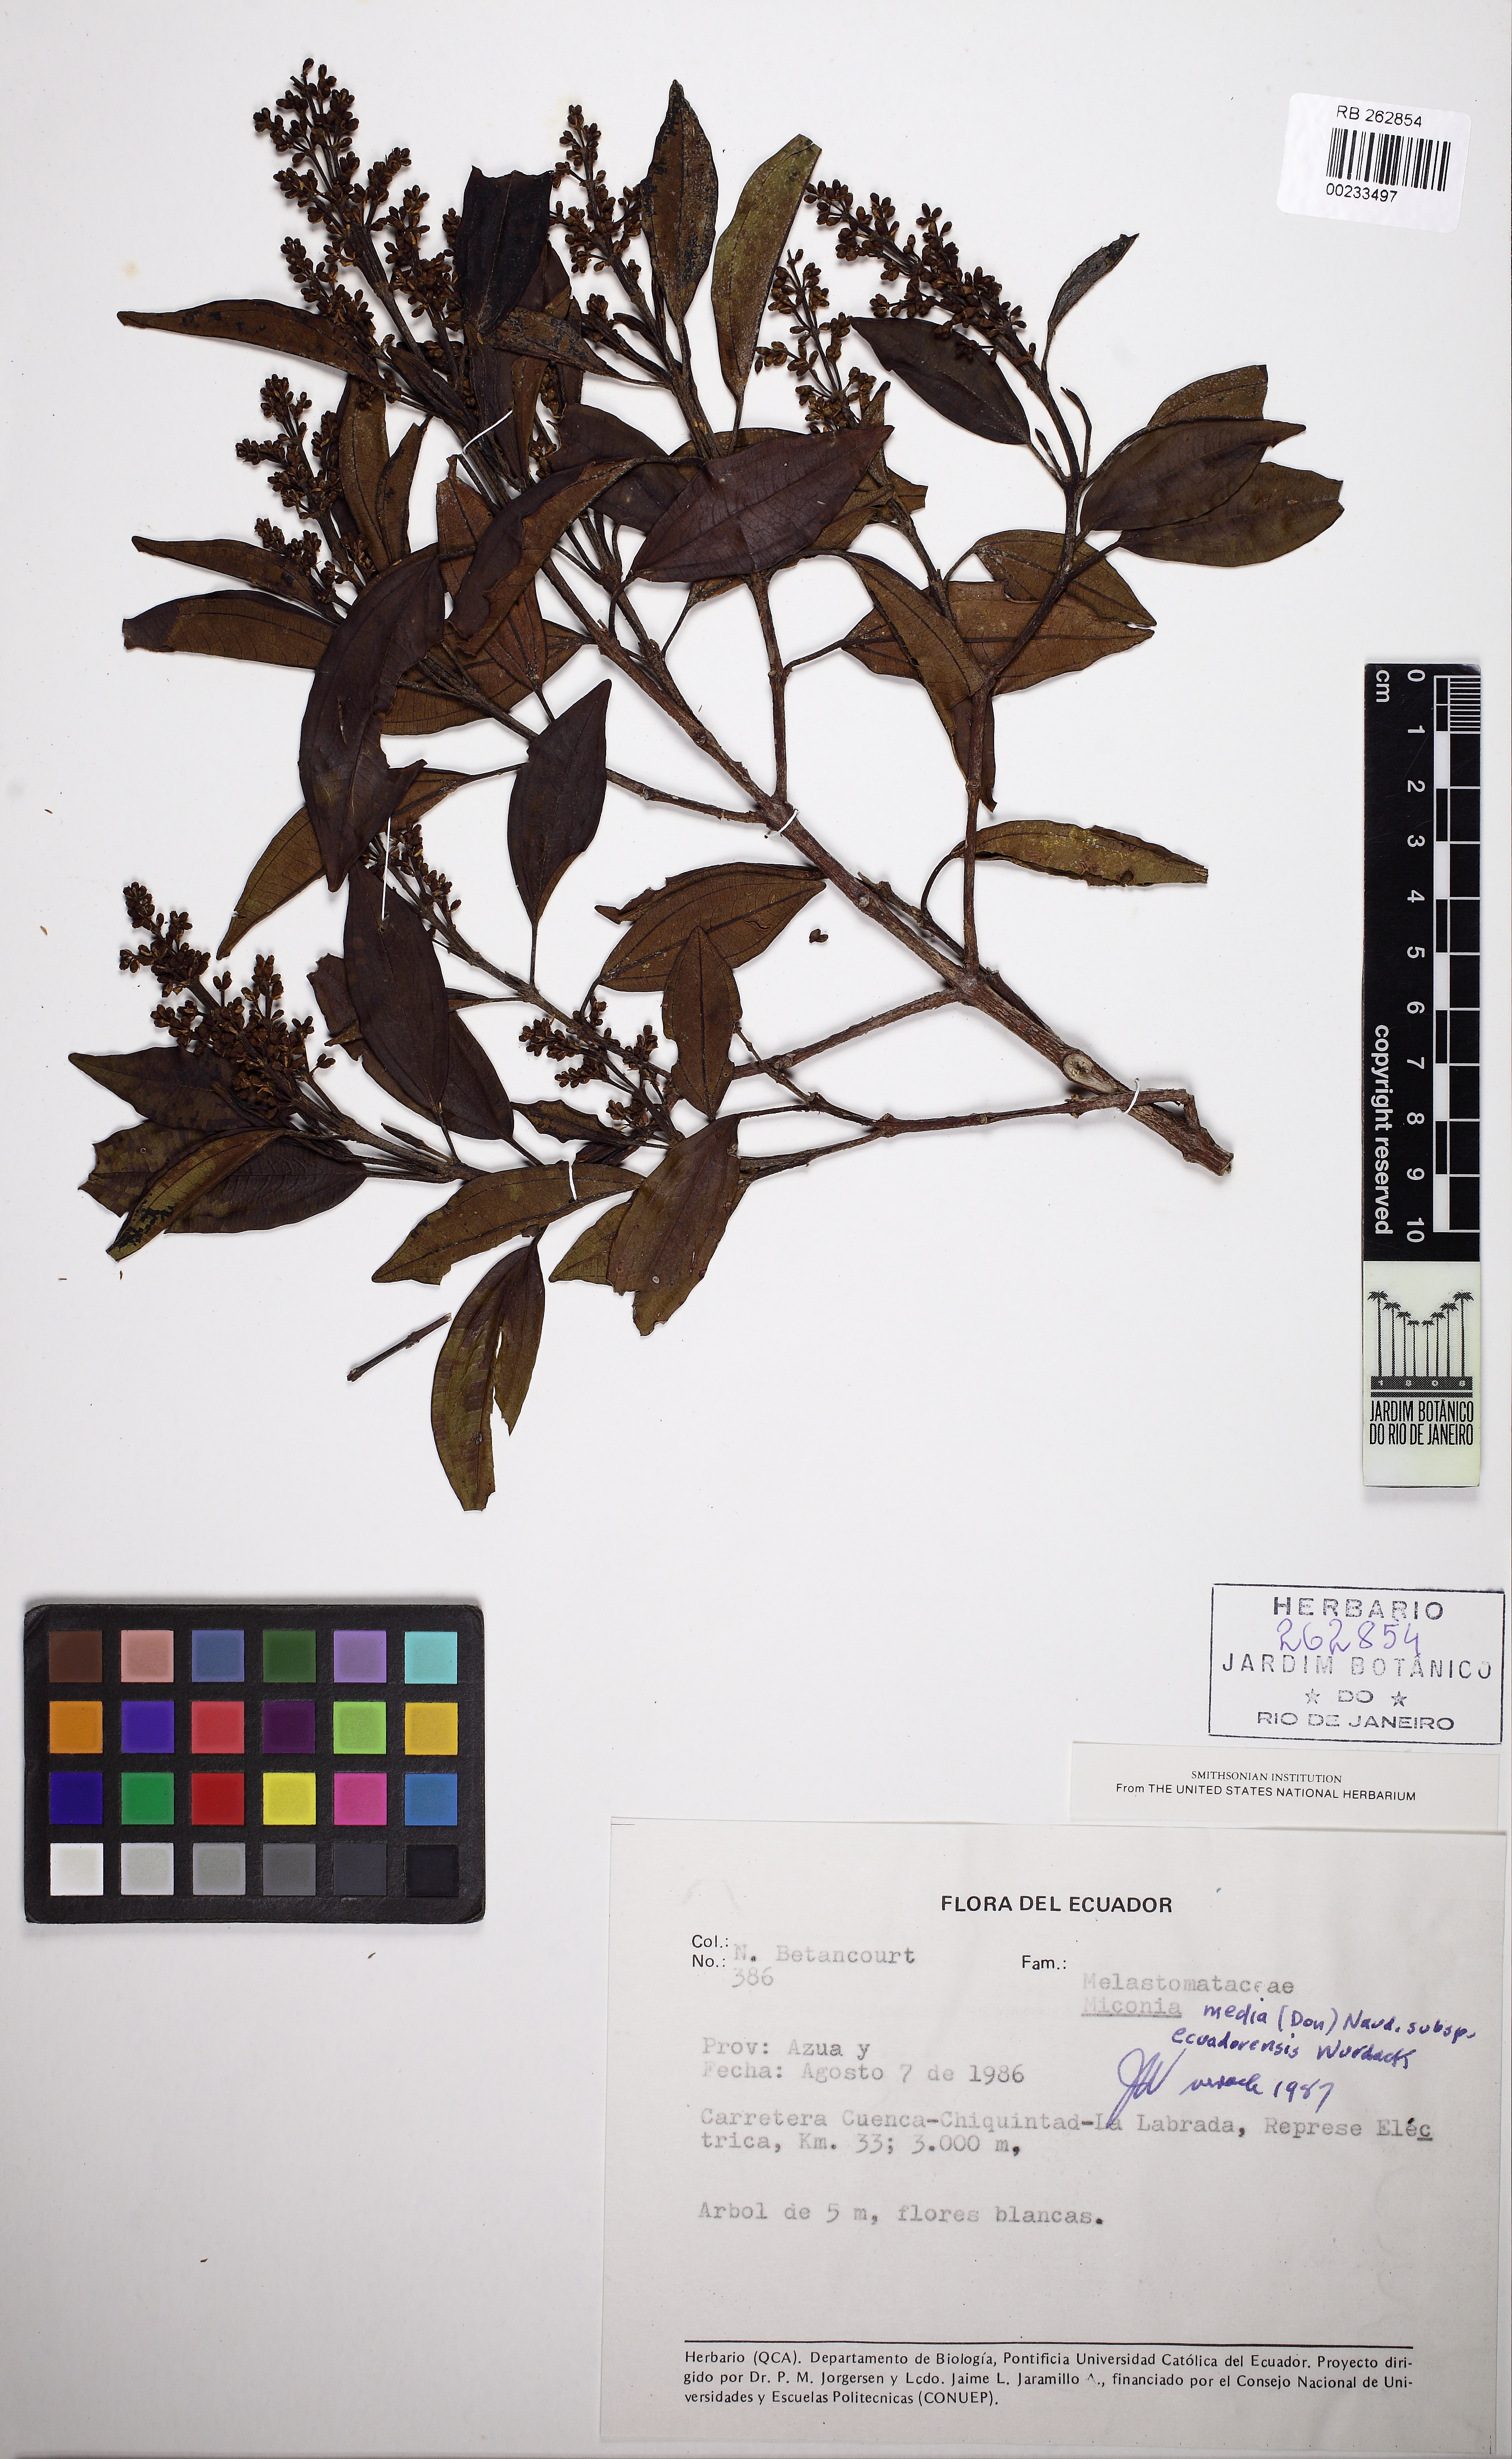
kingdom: Plantae
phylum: Tracheophyta
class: Magnoliopsida
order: Myrtales
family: Melastomataceae
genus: Miconia
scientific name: Miconia media
